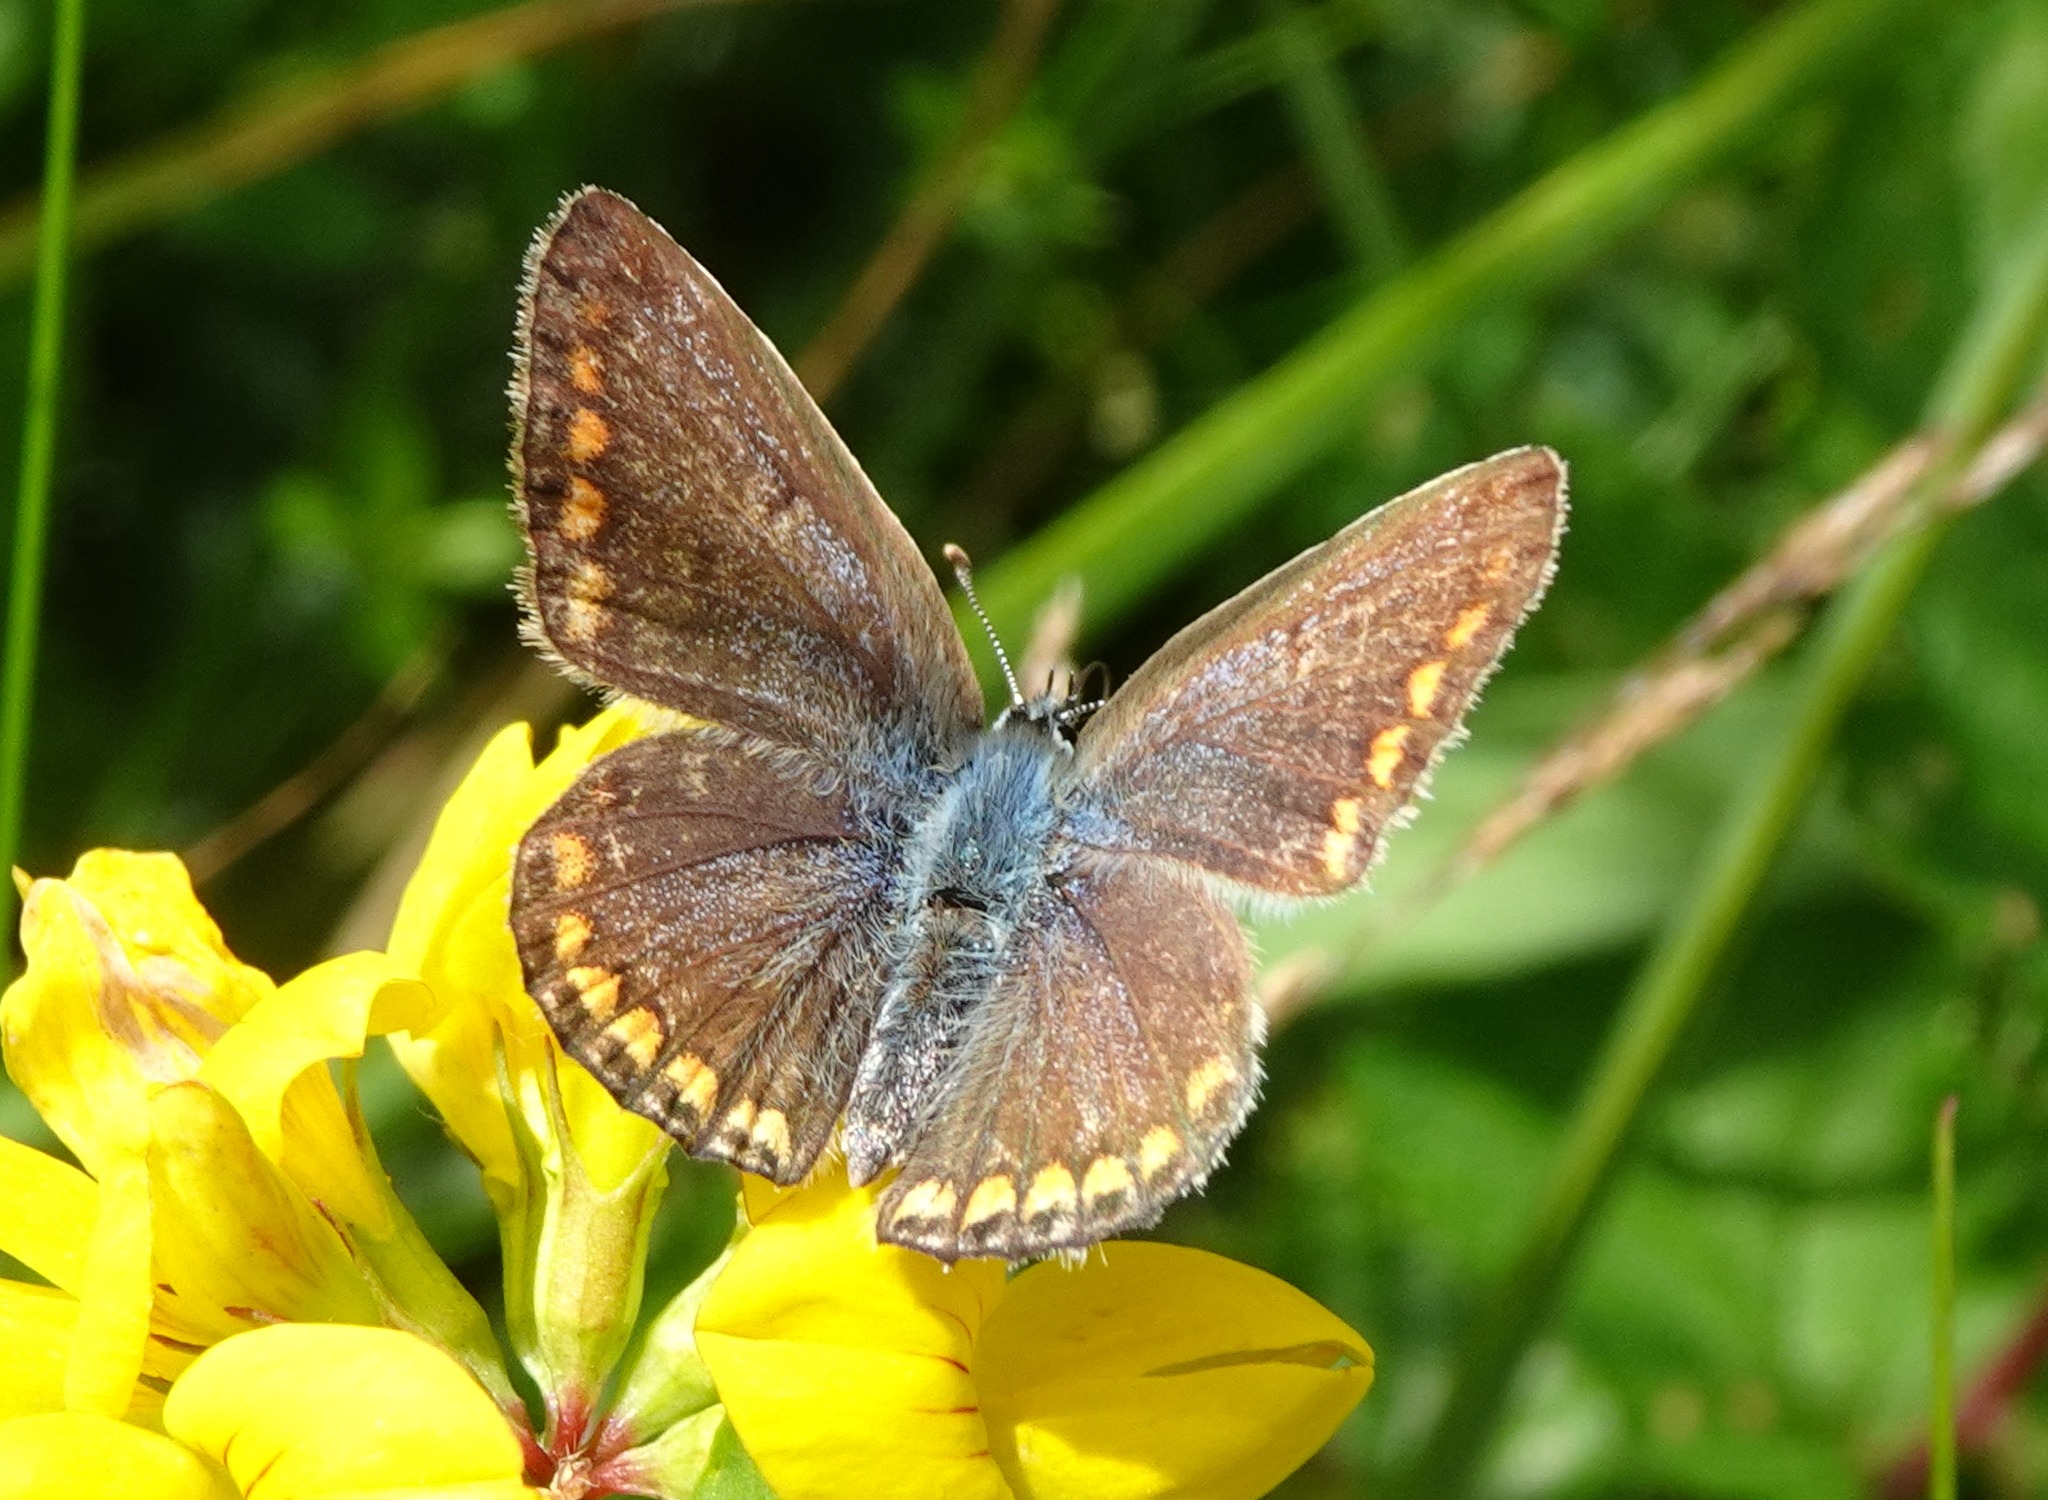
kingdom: Animalia
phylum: Arthropoda
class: Insecta
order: Lepidoptera
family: Lycaenidae
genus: Polyommatus
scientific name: Polyommatus icarus
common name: Almindelig blåfugl
